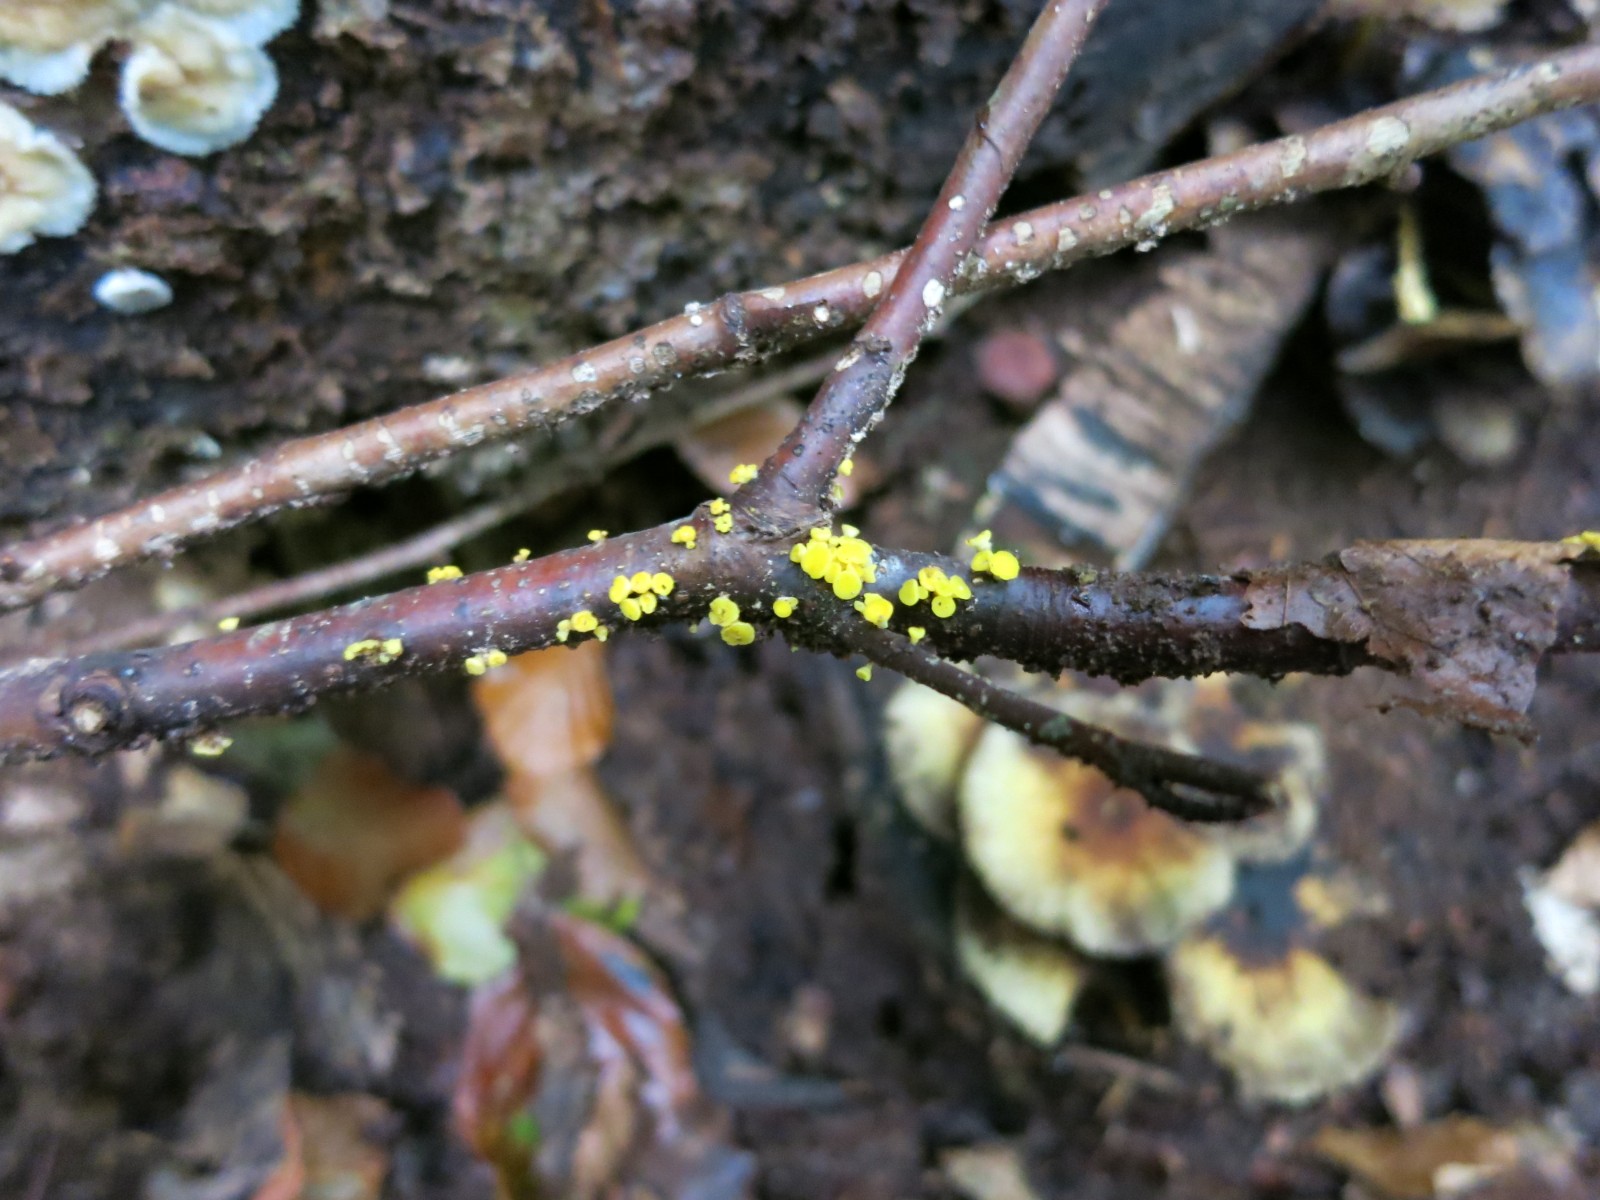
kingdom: Fungi
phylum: Ascomycota
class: Leotiomycetes
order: Helotiales
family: Pezizellaceae
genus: Calycina
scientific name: Calycina citrina
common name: almindelig gulskive
